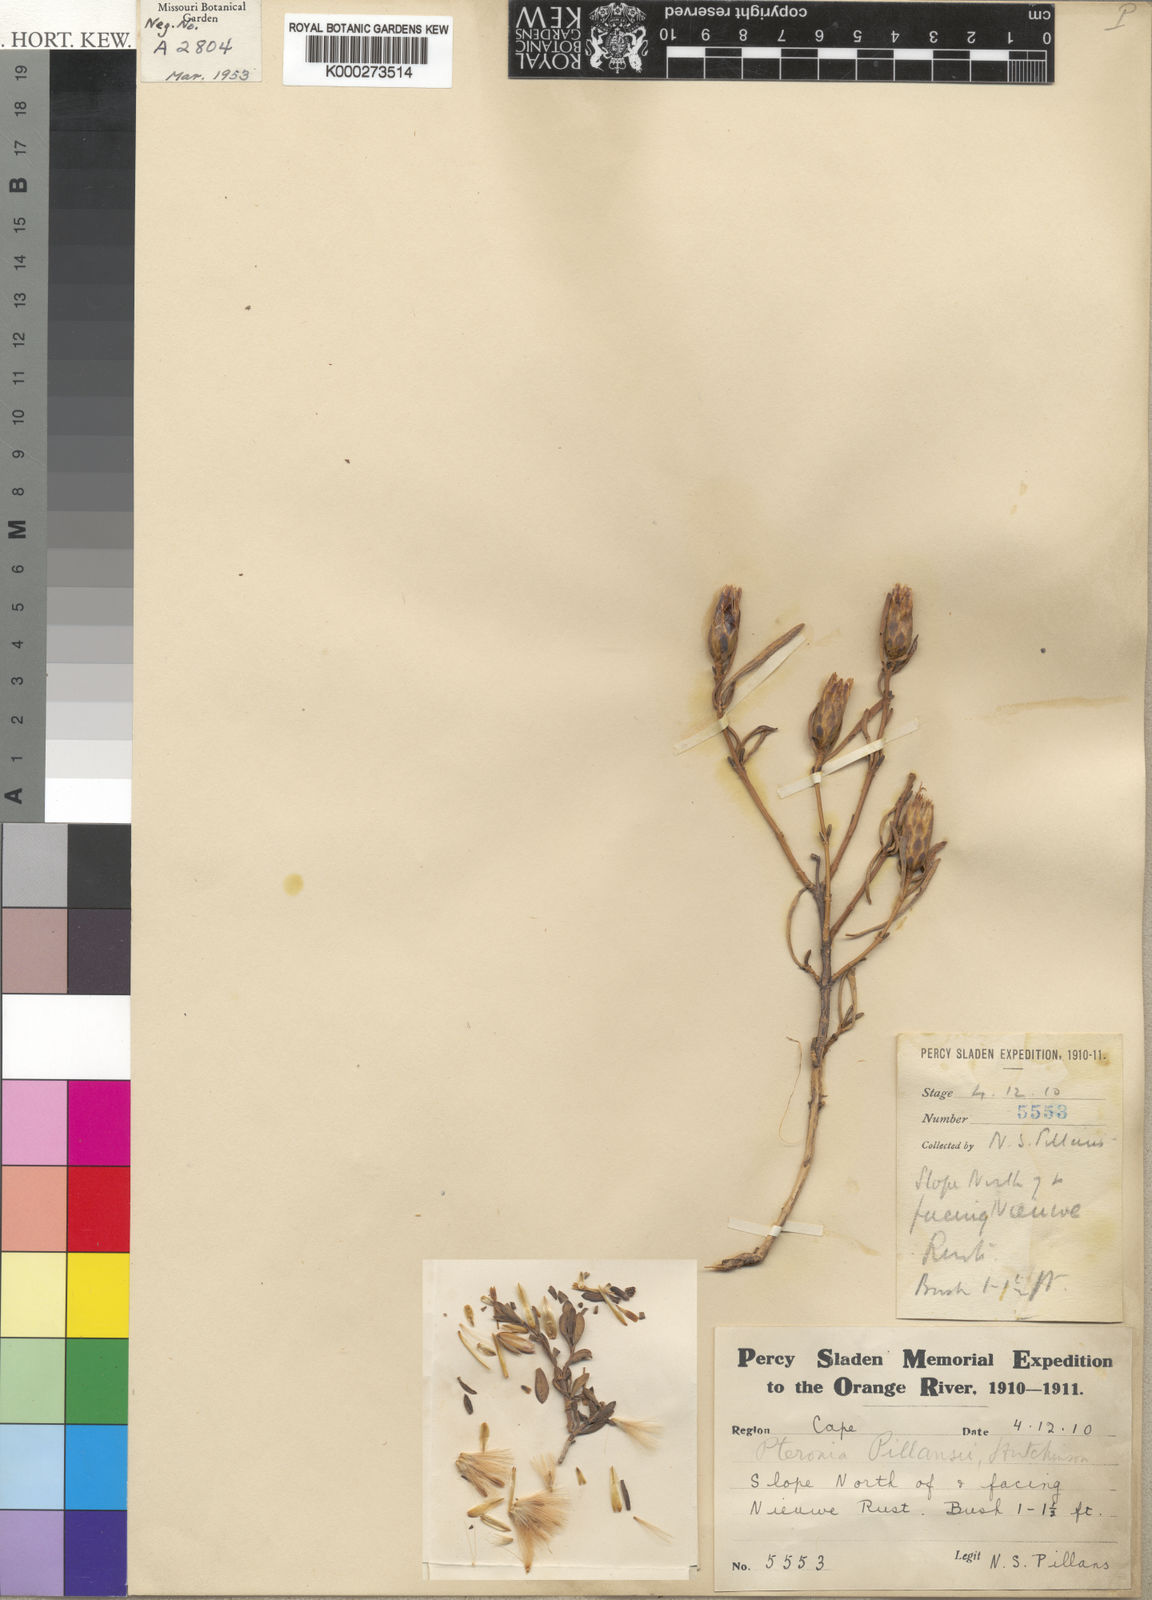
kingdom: Plantae
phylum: Tracheophyta
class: Magnoliopsida
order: Asterales
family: Asteraceae
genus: Pteronia
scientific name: Pteronia pillansii
